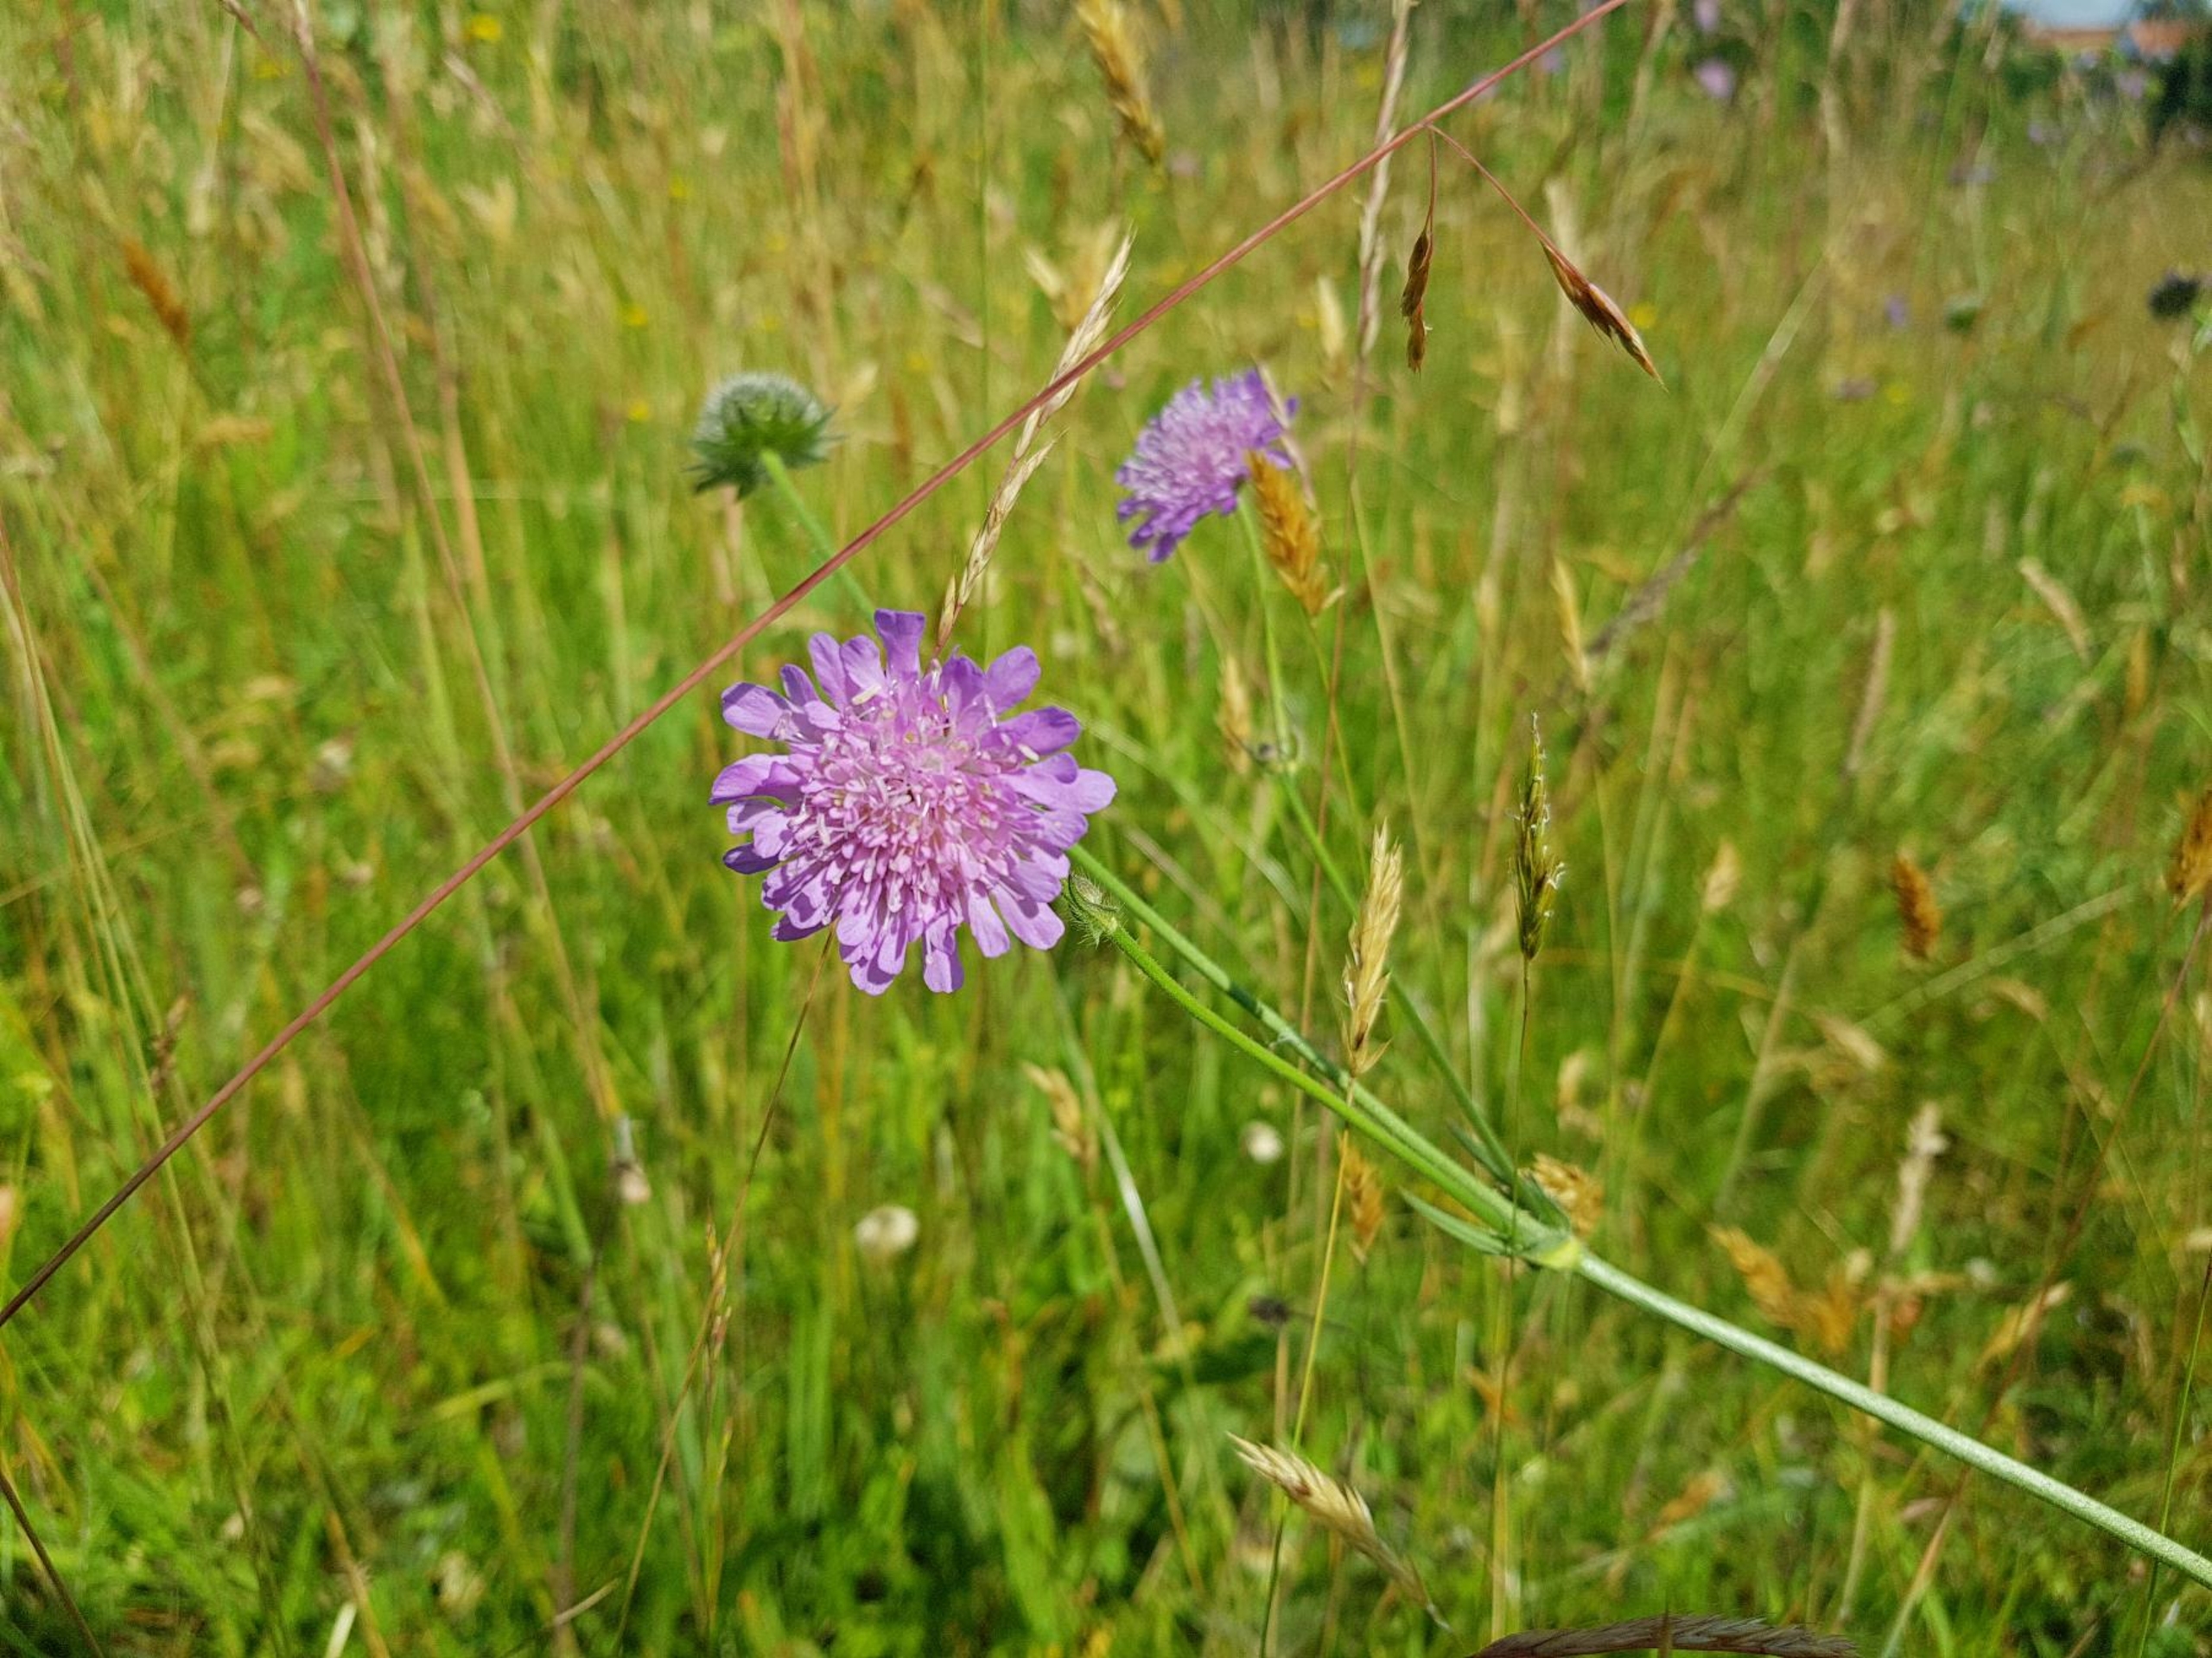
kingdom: Plantae
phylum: Tracheophyta
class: Magnoliopsida
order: Dipsacales
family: Caprifoliaceae
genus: Knautia
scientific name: Knautia arvensis
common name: Blåhat
